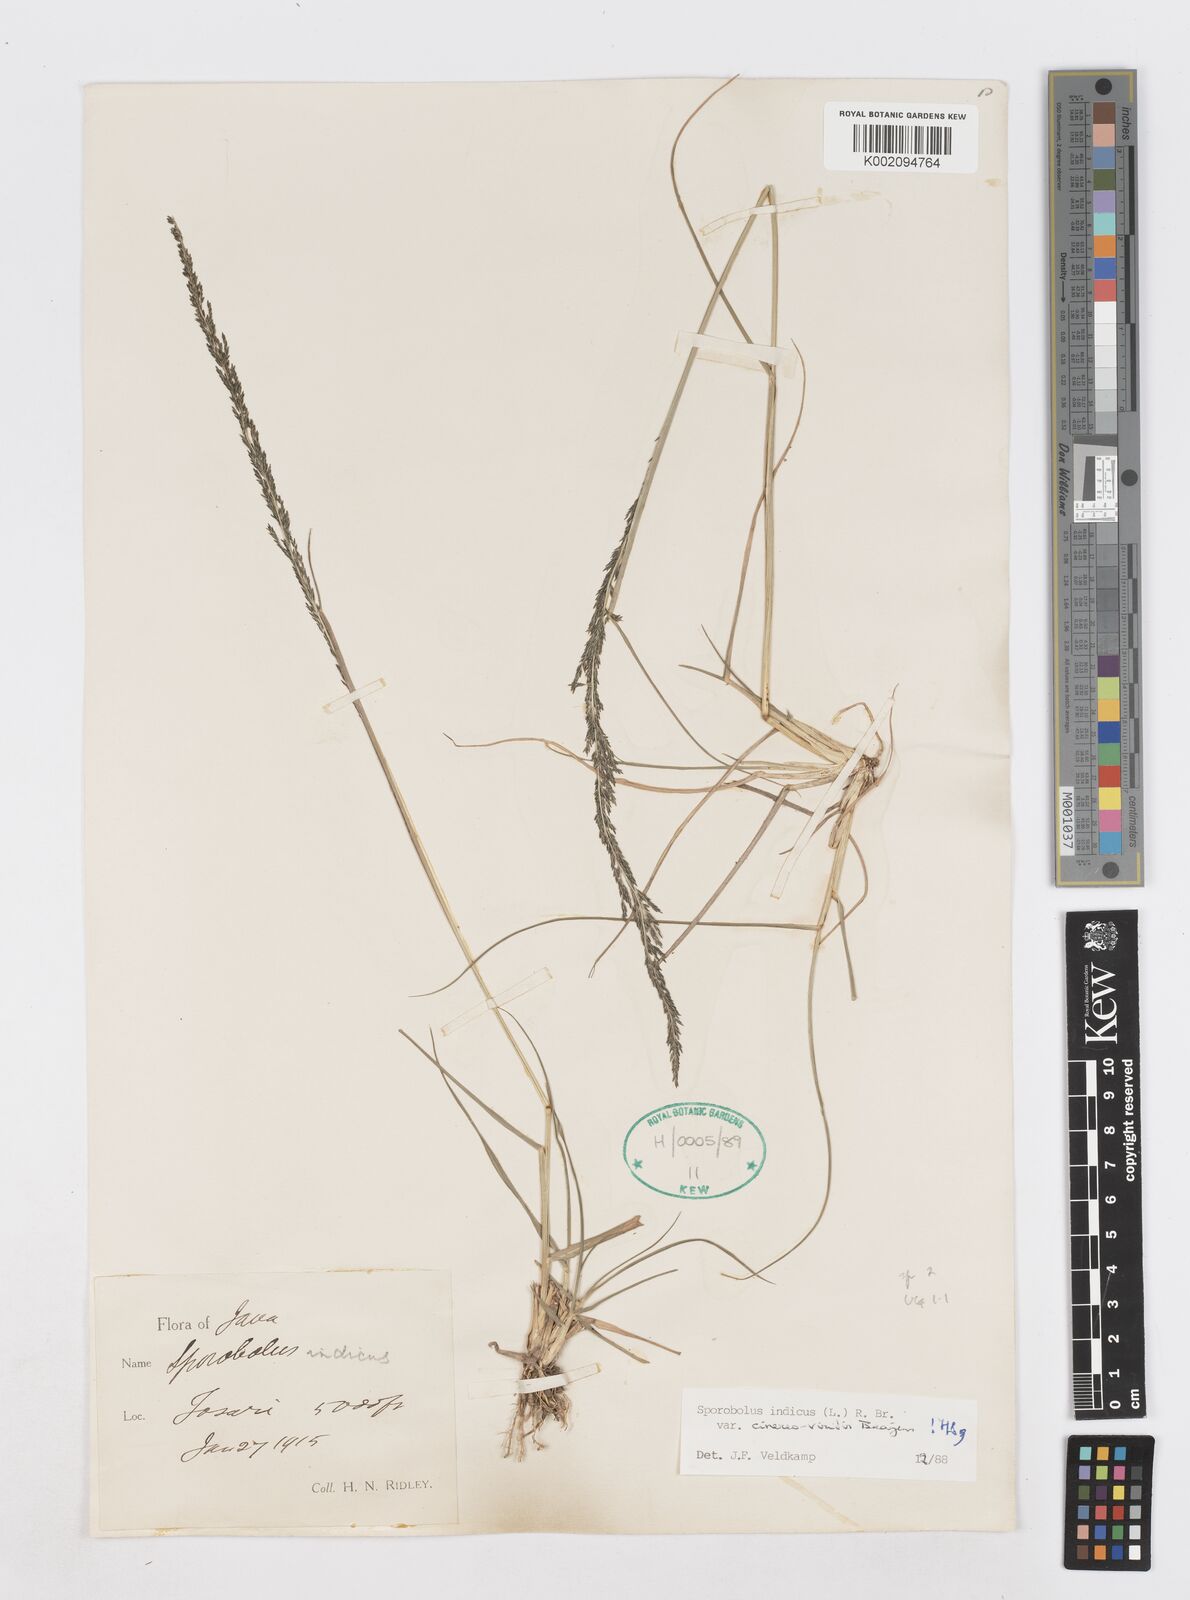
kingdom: Plantae
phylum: Tracheophyta
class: Liliopsida
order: Poales
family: Poaceae
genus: Sporobolus
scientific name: Sporobolus fertilis
